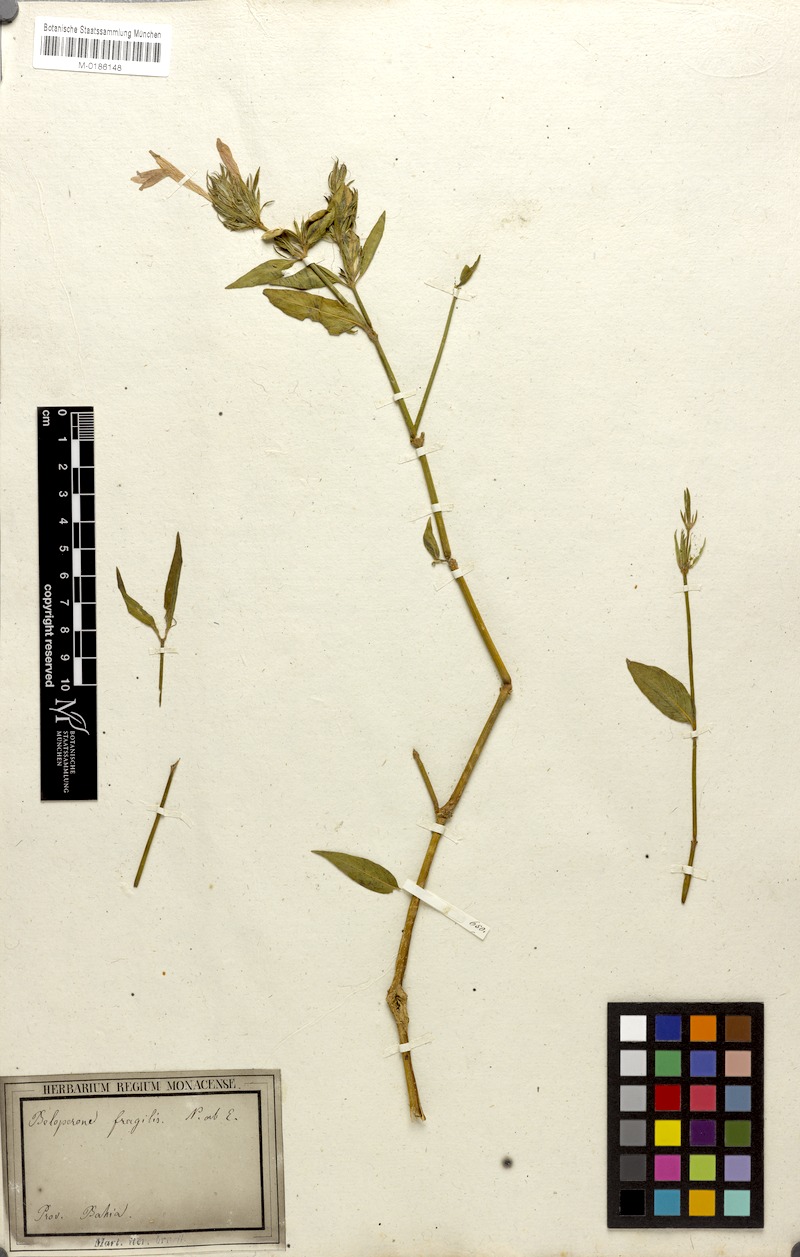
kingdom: Plantae
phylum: Tracheophyta
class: Magnoliopsida
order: Lamiales
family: Acanthaceae
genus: Justicia
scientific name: Justicia Beloperone fragilis
